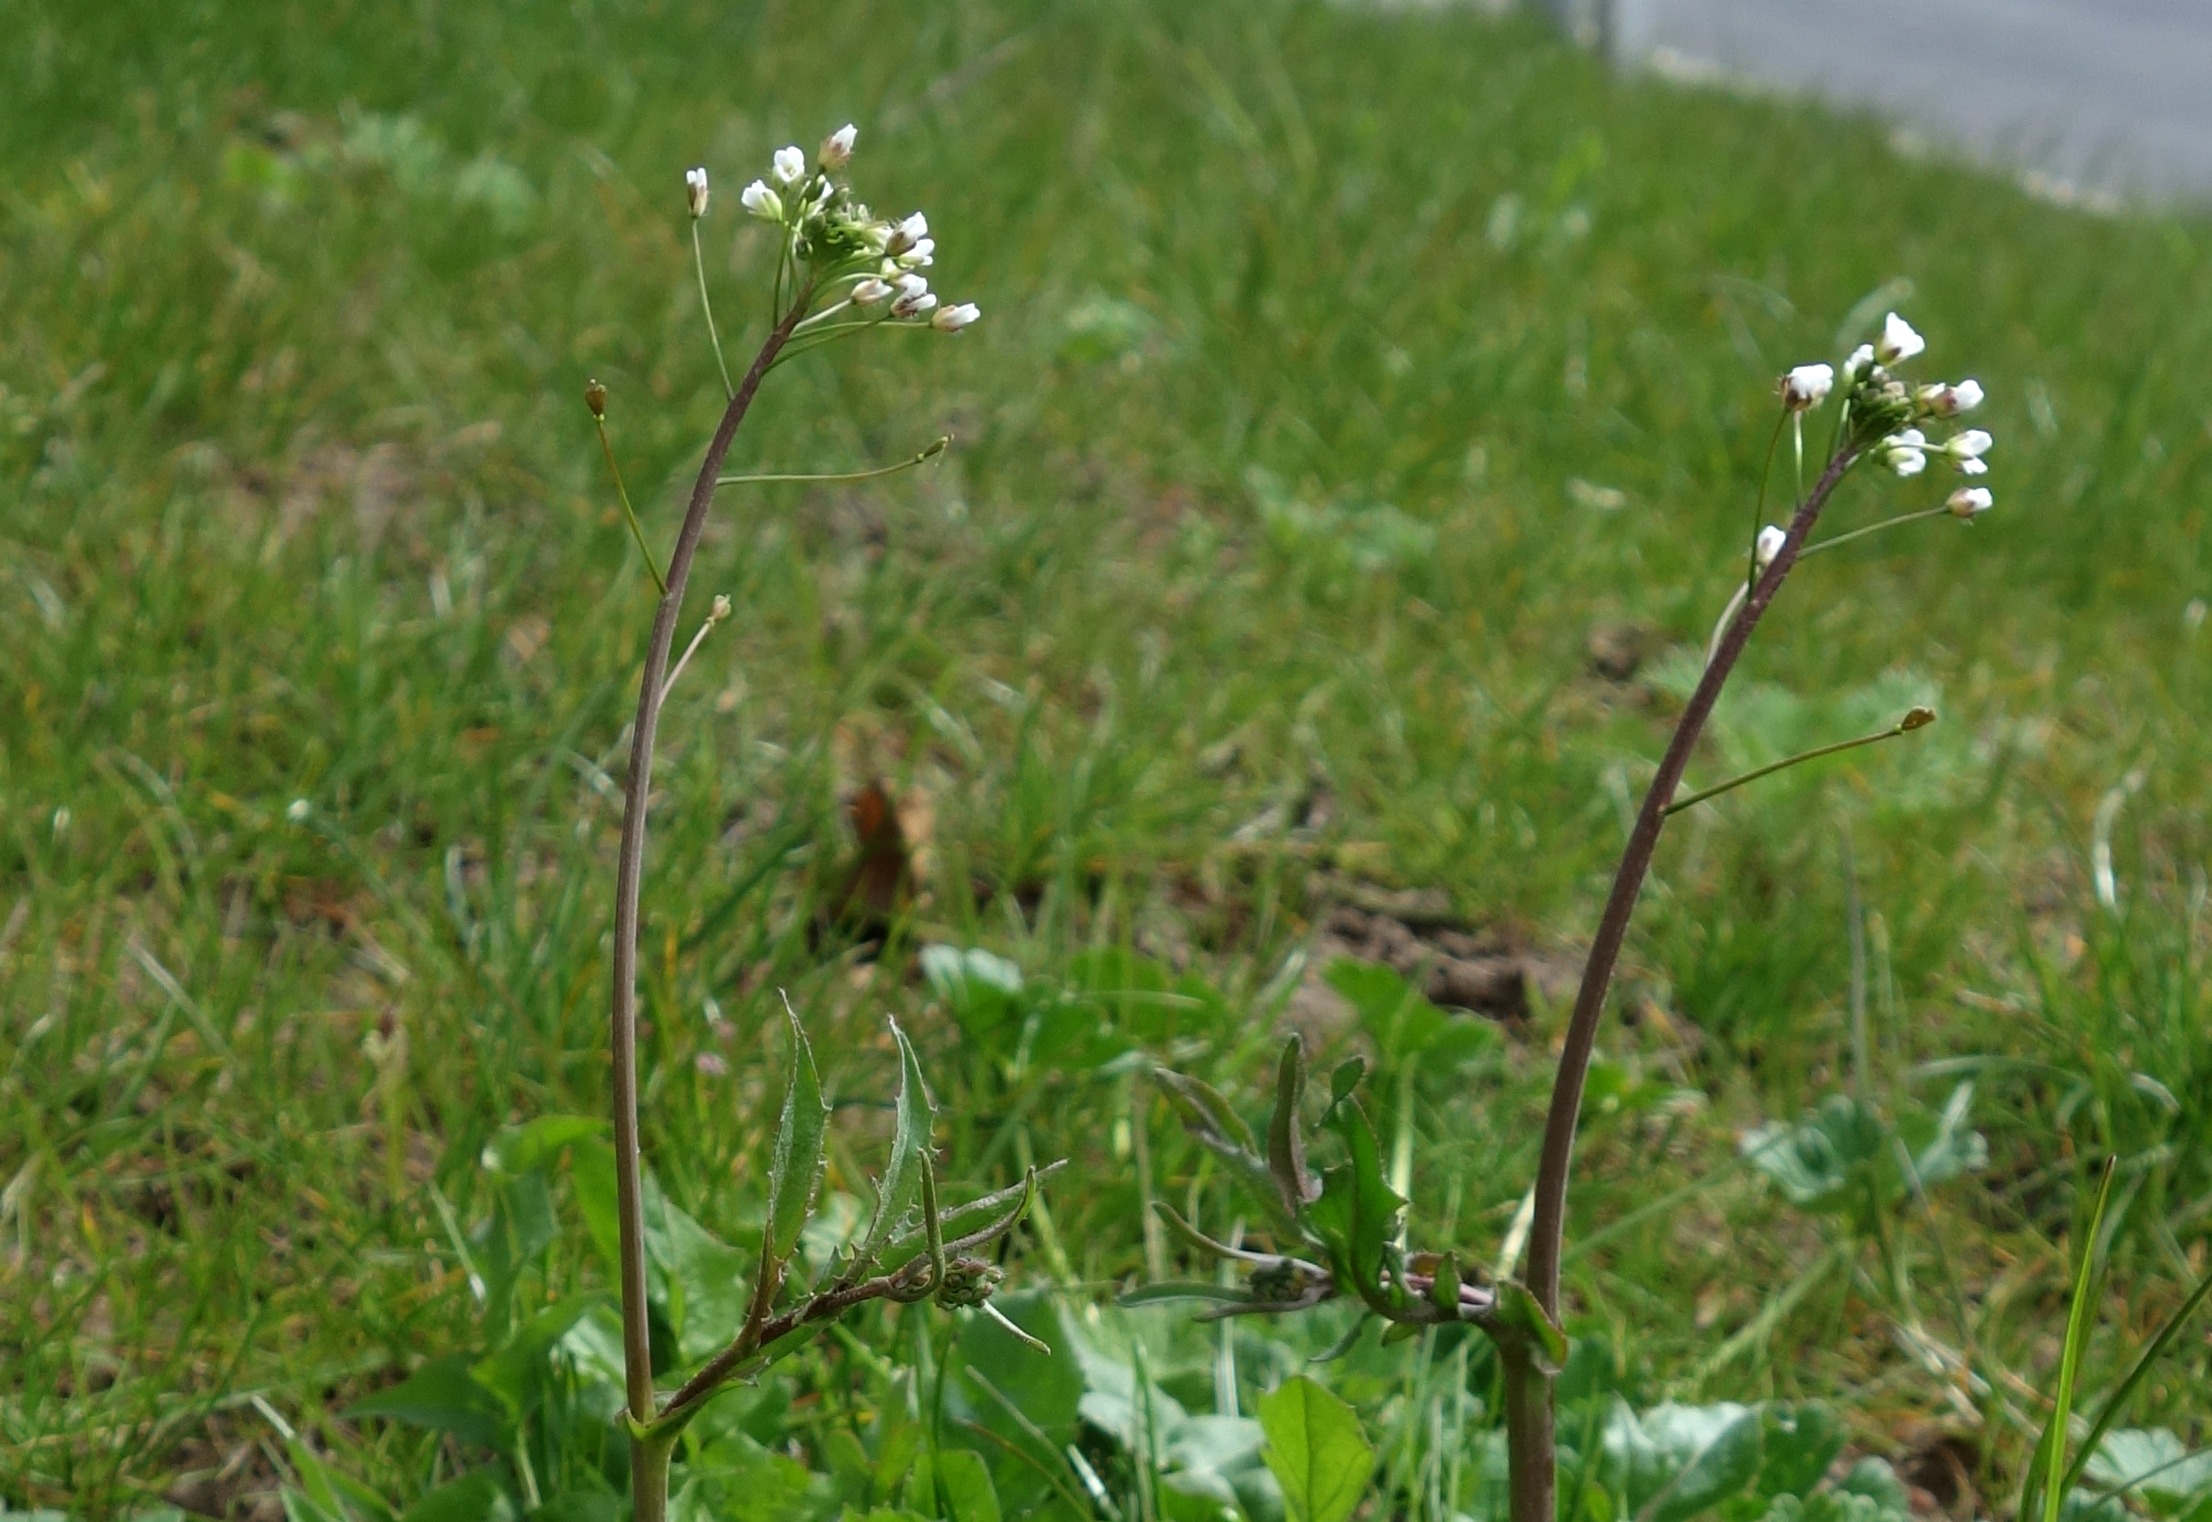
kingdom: Plantae
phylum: Tracheophyta
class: Magnoliopsida
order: Brassicales
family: Brassicaceae
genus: Capsella
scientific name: Capsella bursa-pastoris
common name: Hyrdetaske
